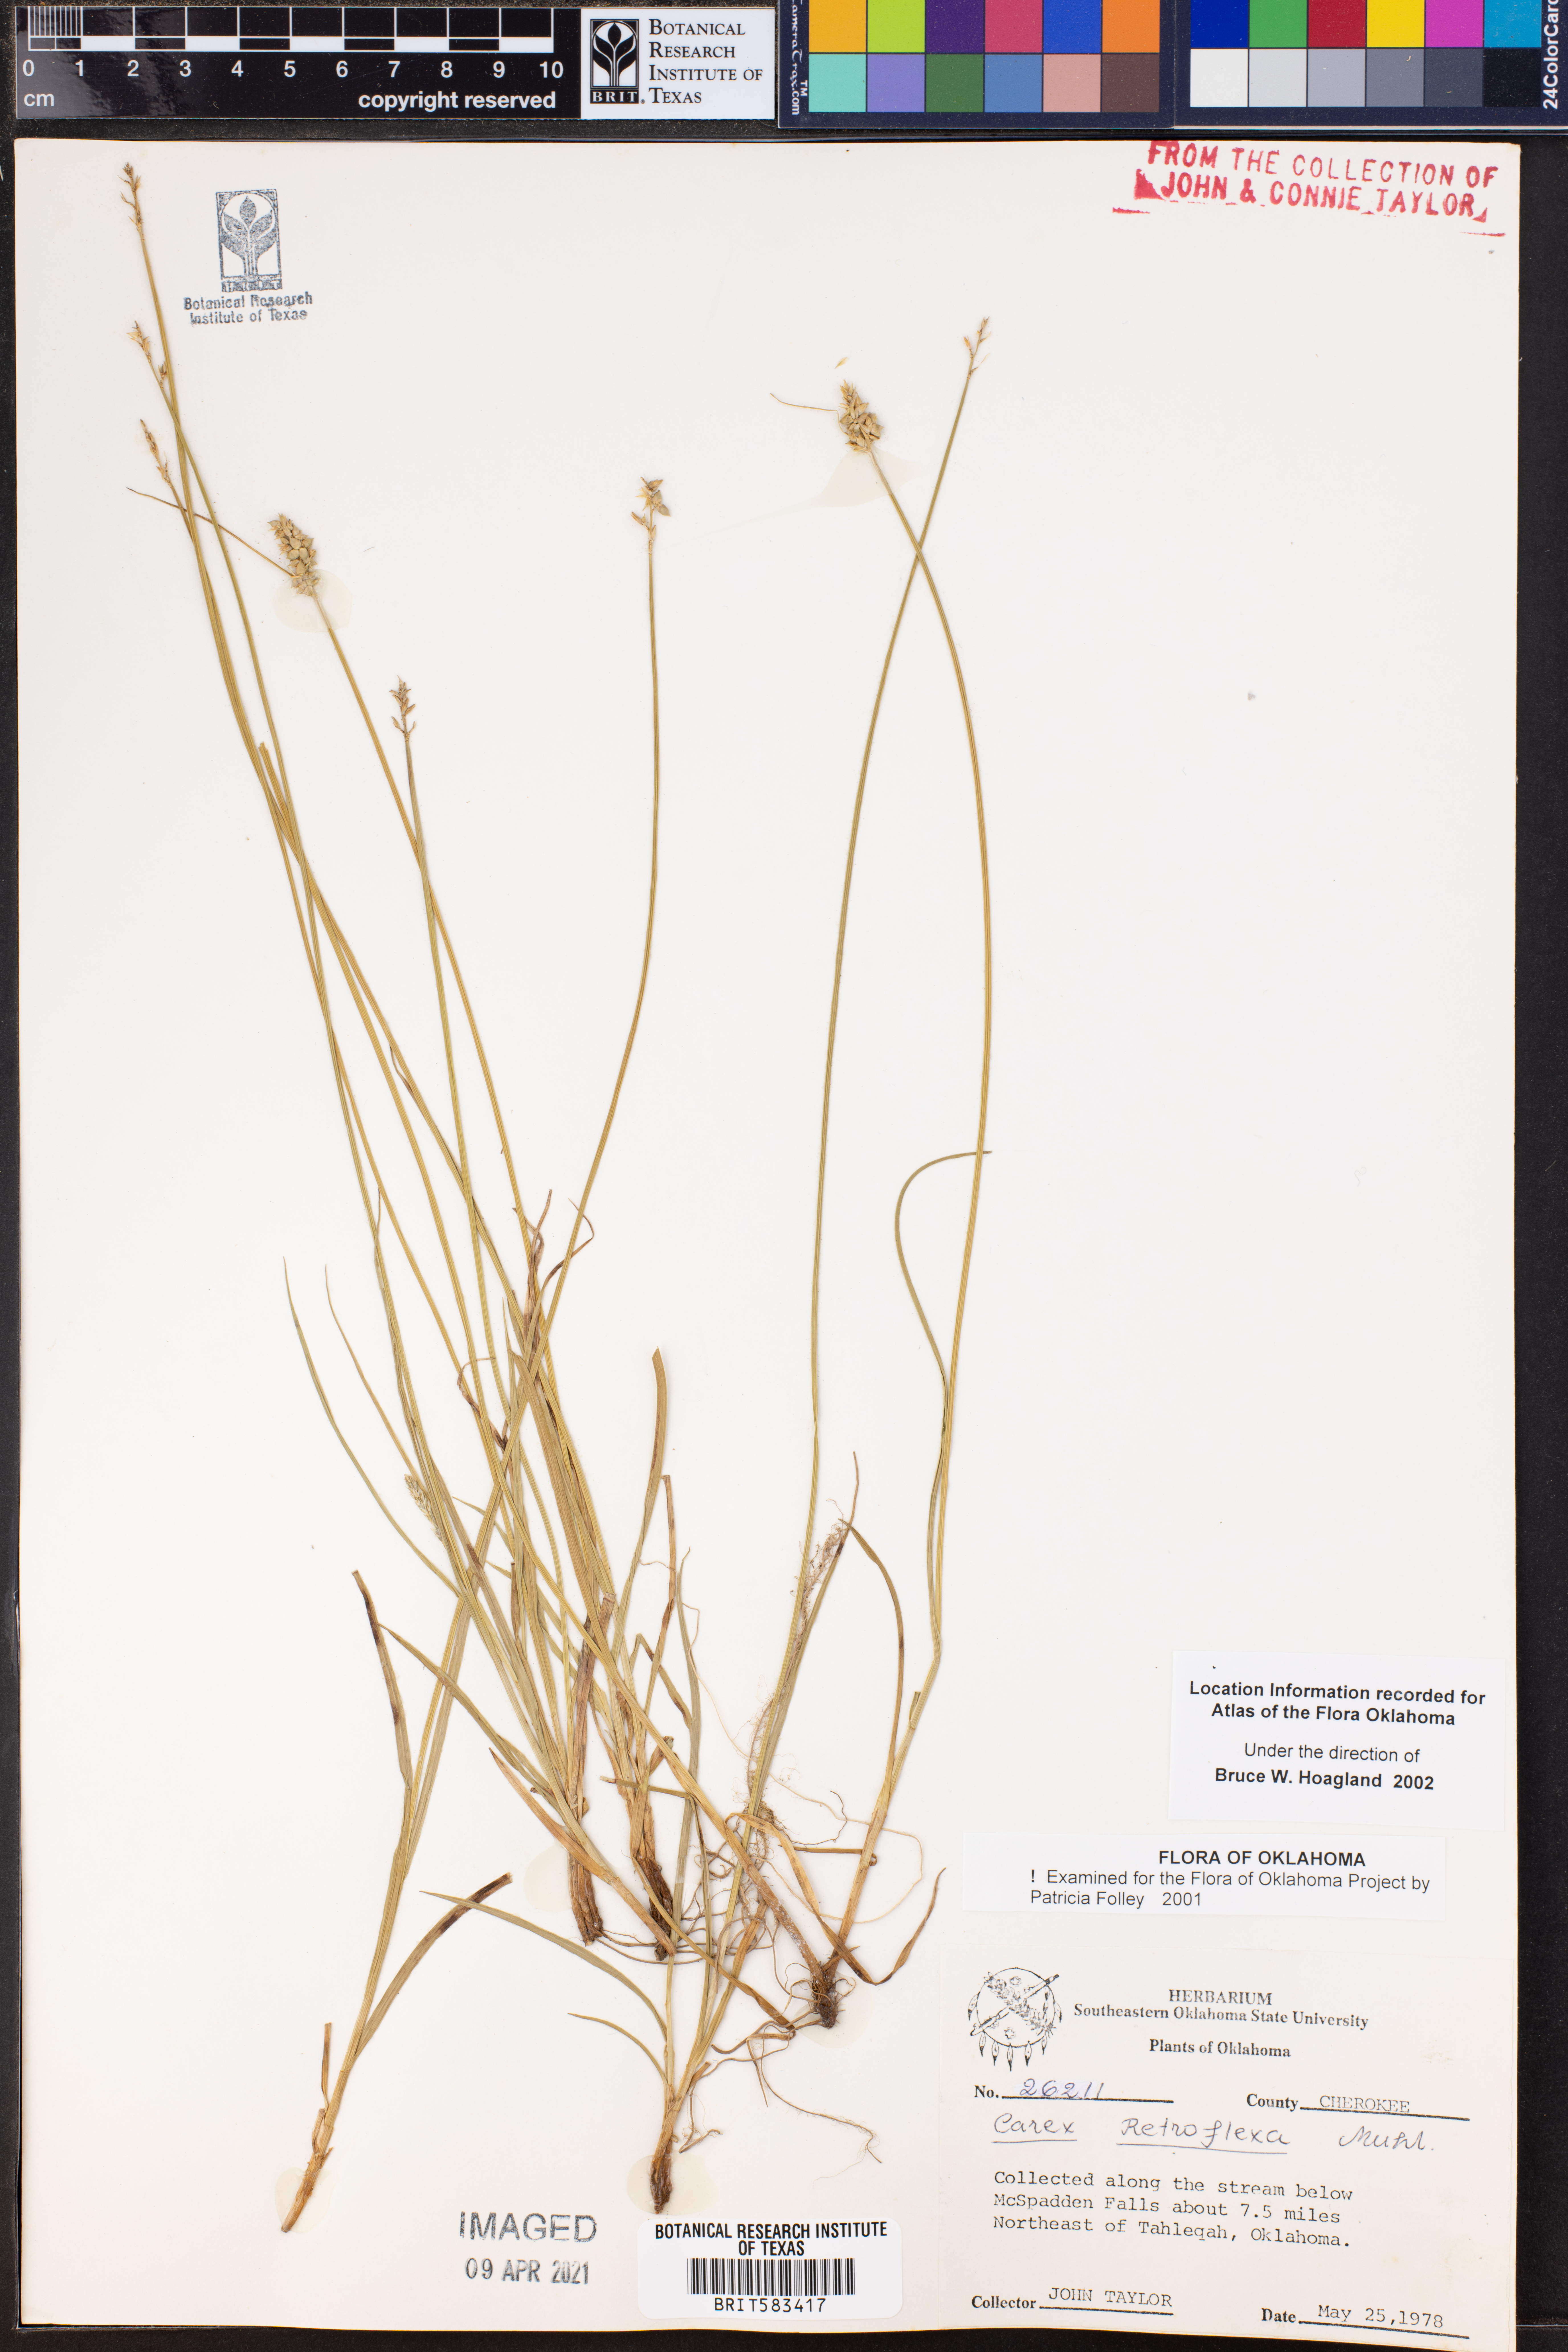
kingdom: Plantae
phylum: Tracheophyta
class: Liliopsida
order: Poales
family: Cyperaceae
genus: Carex
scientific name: Carex retroflexa
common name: Reflexed sedge
